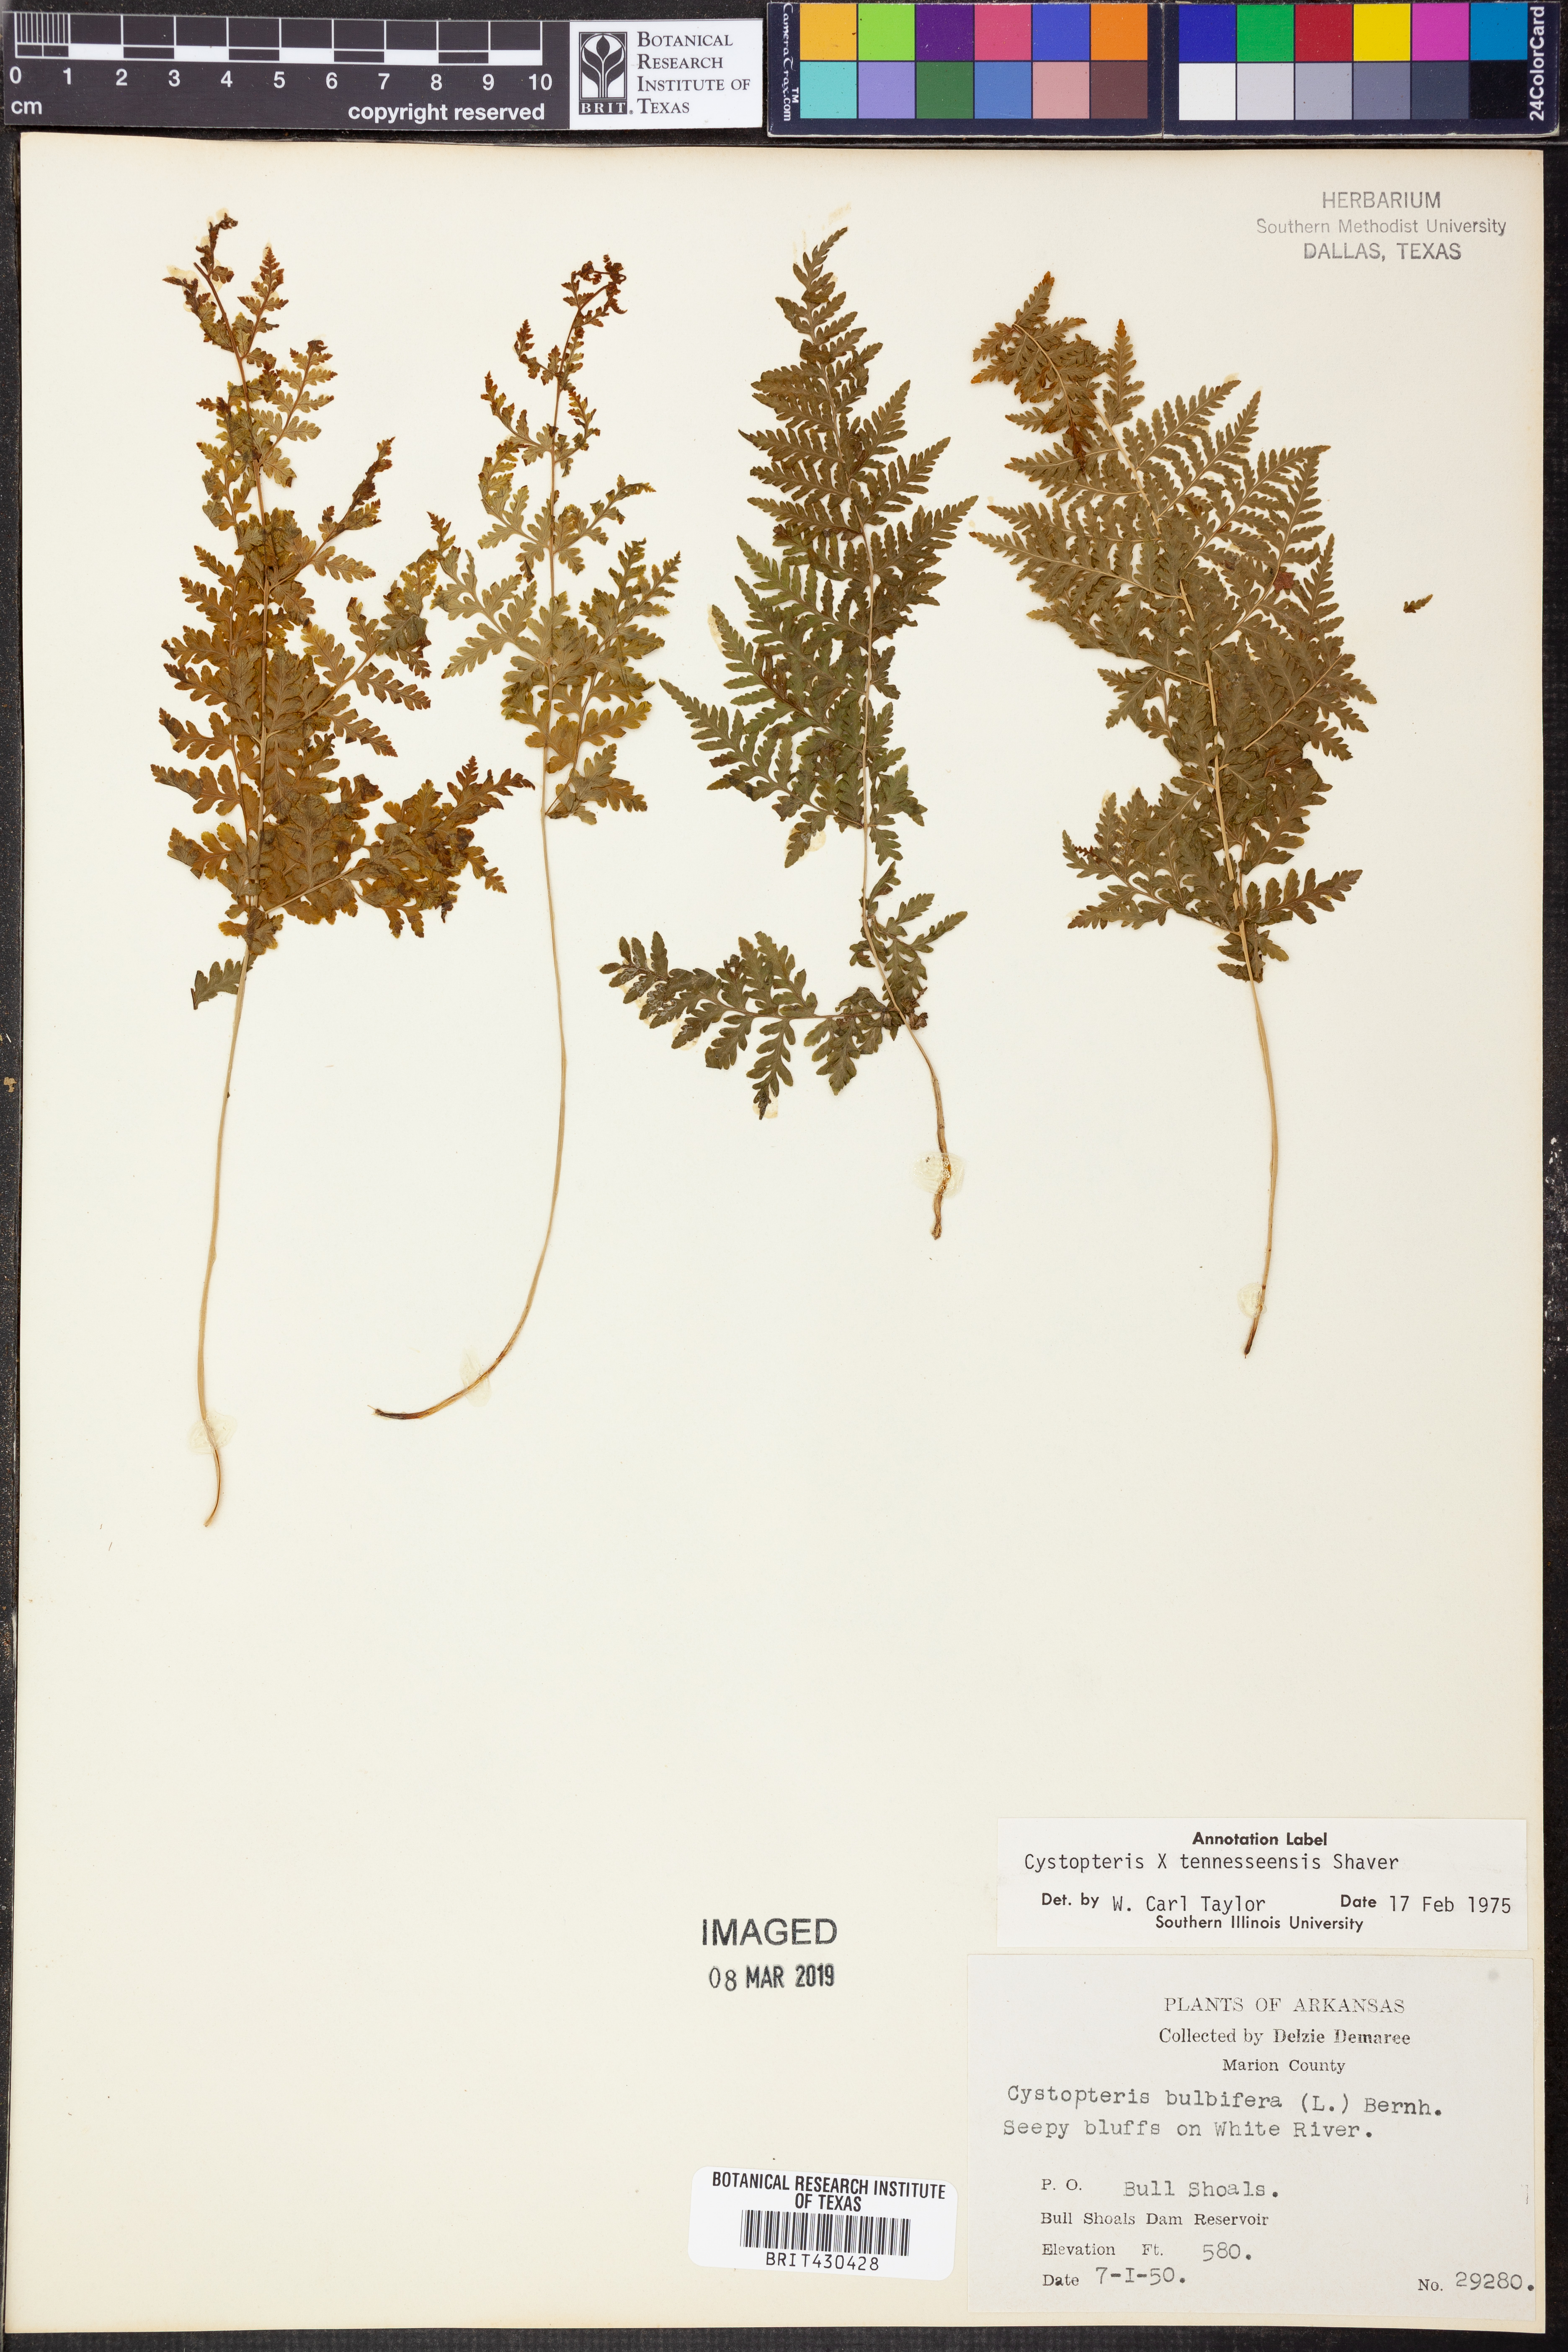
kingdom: Plantae
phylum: Tracheophyta
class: Polypodiopsida
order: Polypodiales
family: Cystopteridaceae
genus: Cystopteris
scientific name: Cystopteris tennesseensis
